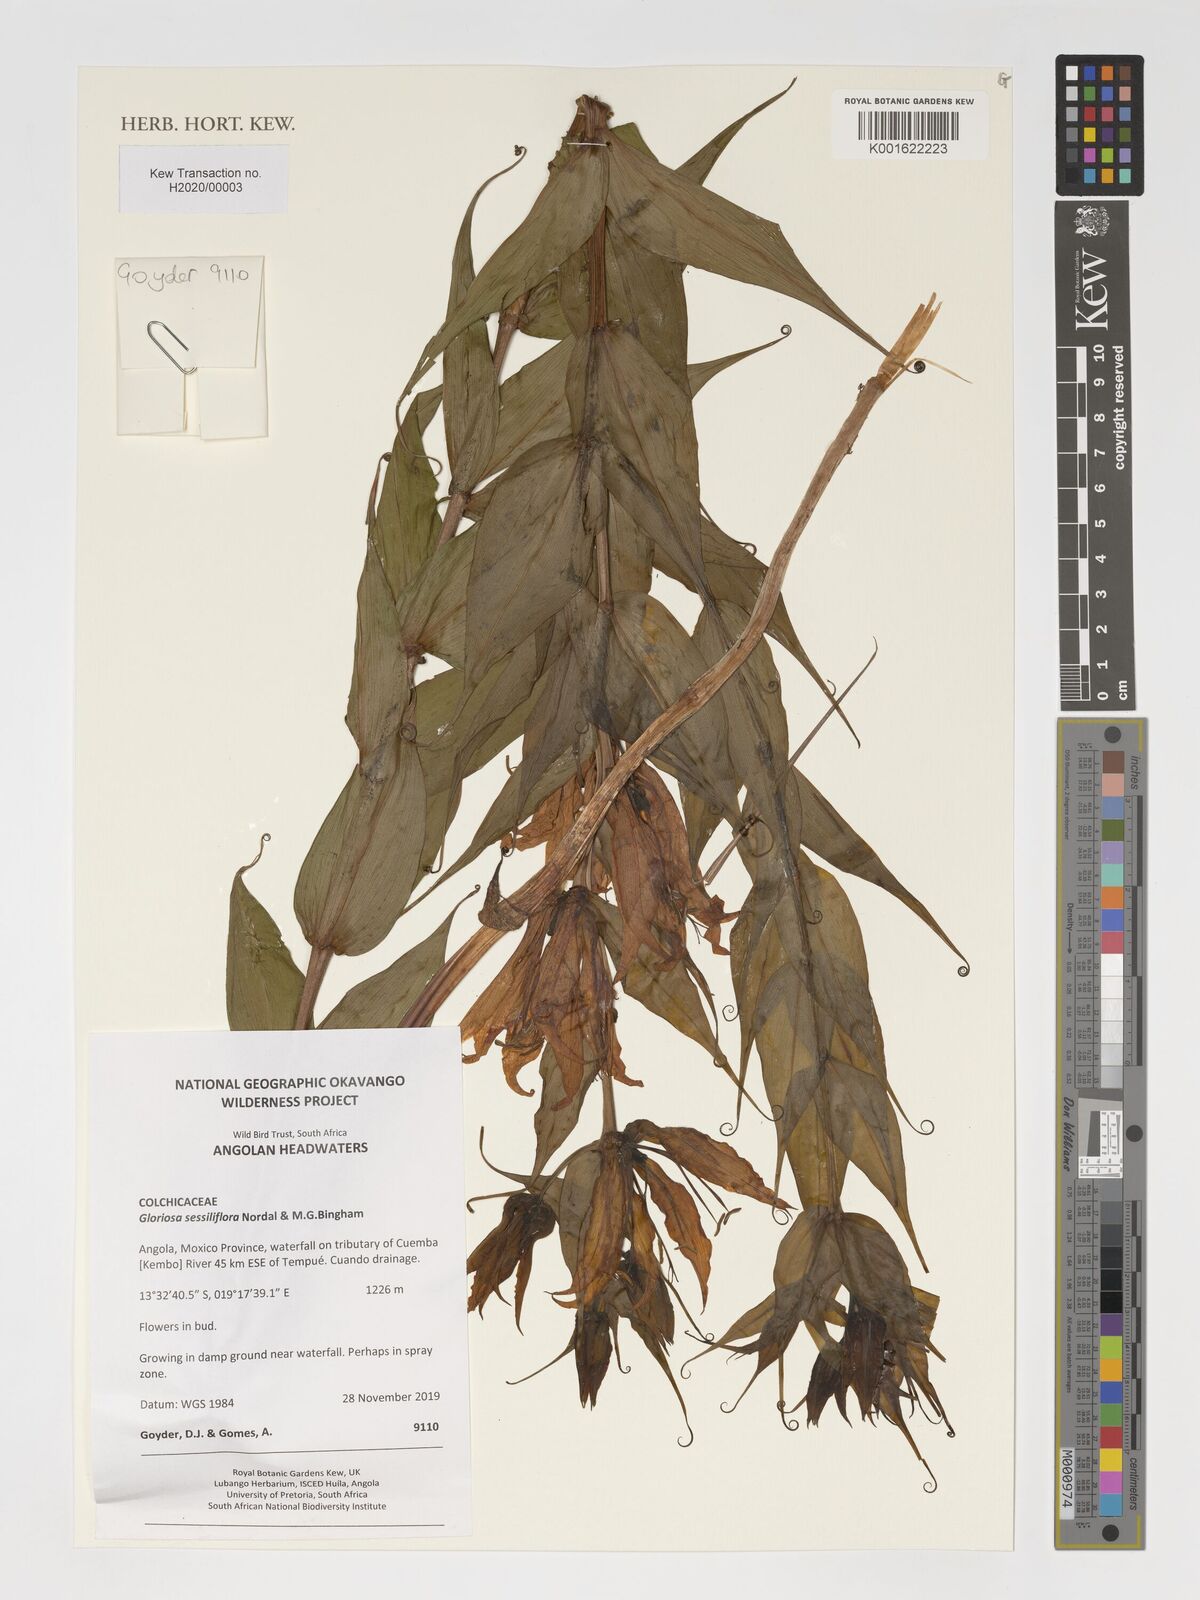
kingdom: Plantae
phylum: Tracheophyta
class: Liliopsida
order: Liliales
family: Colchicaceae
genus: Gloriosa
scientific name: Gloriosa sessiliflora
